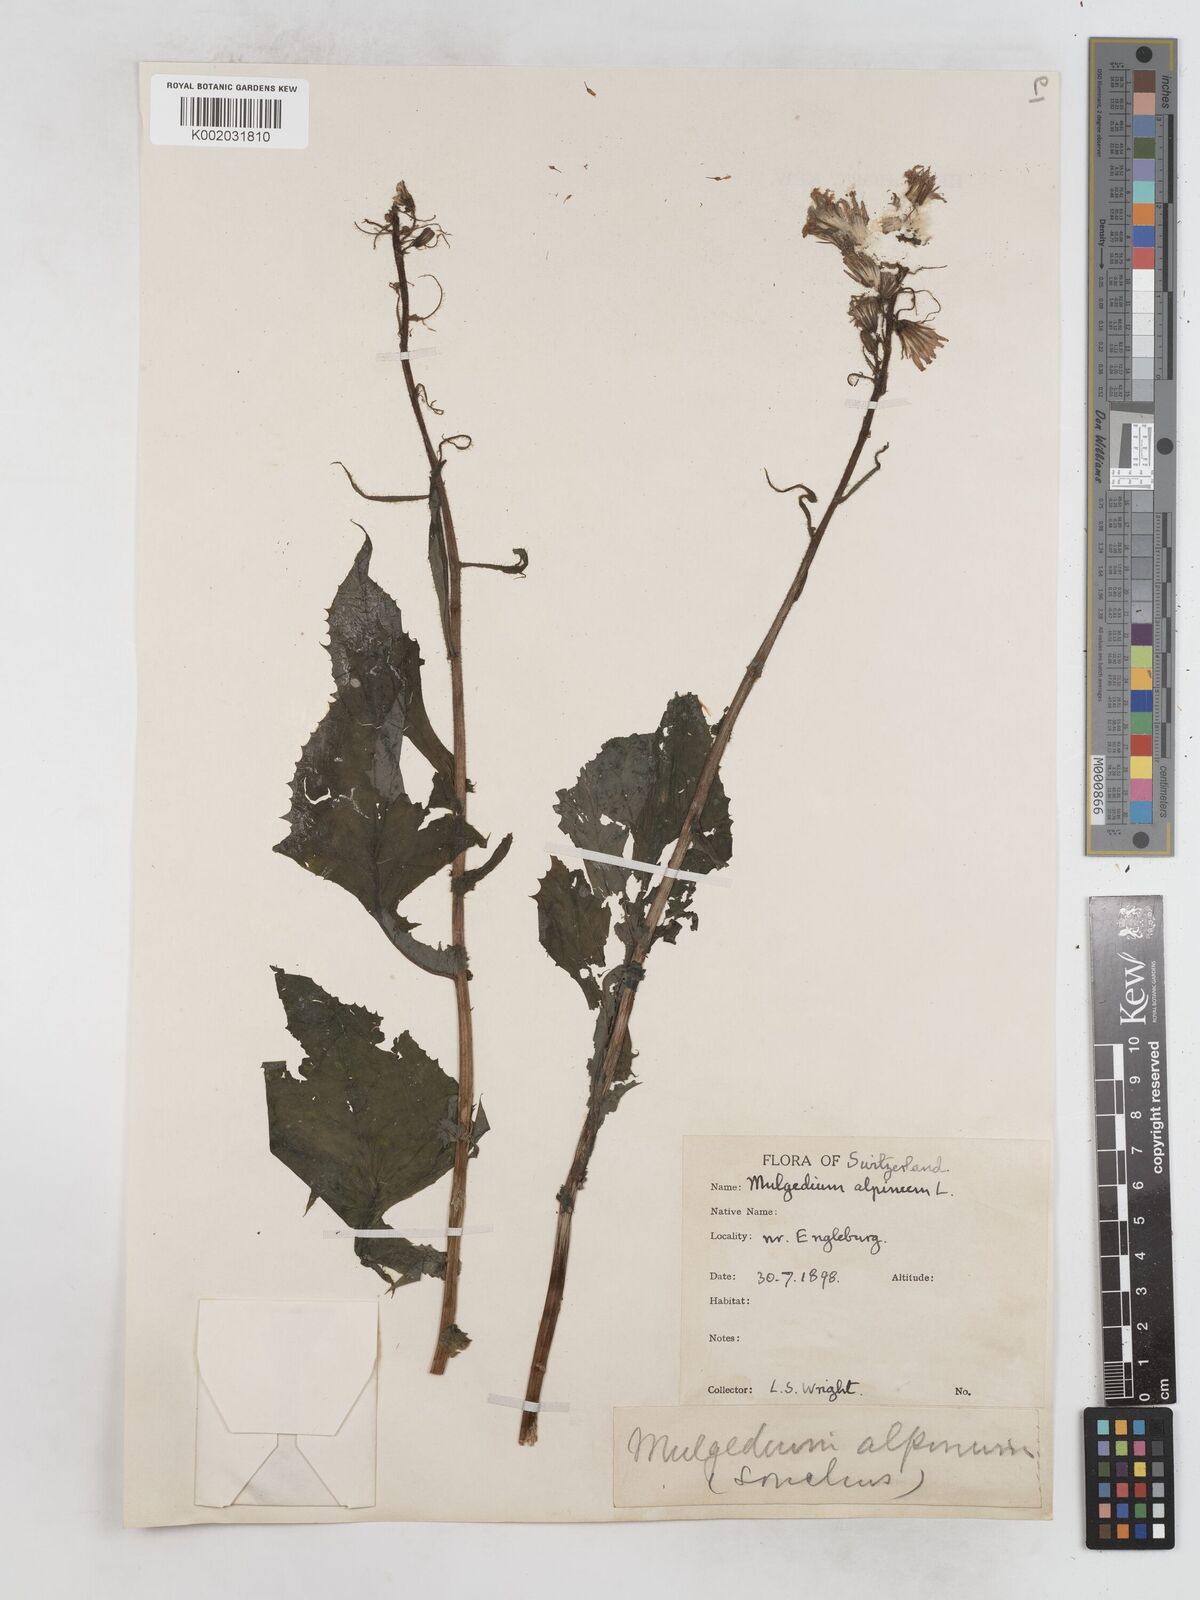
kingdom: Plantae
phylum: Tracheophyta
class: Magnoliopsida
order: Asterales
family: Asteraceae
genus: Cicerbita
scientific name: Cicerbita alpina
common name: Alpine blue-sow-thistle
